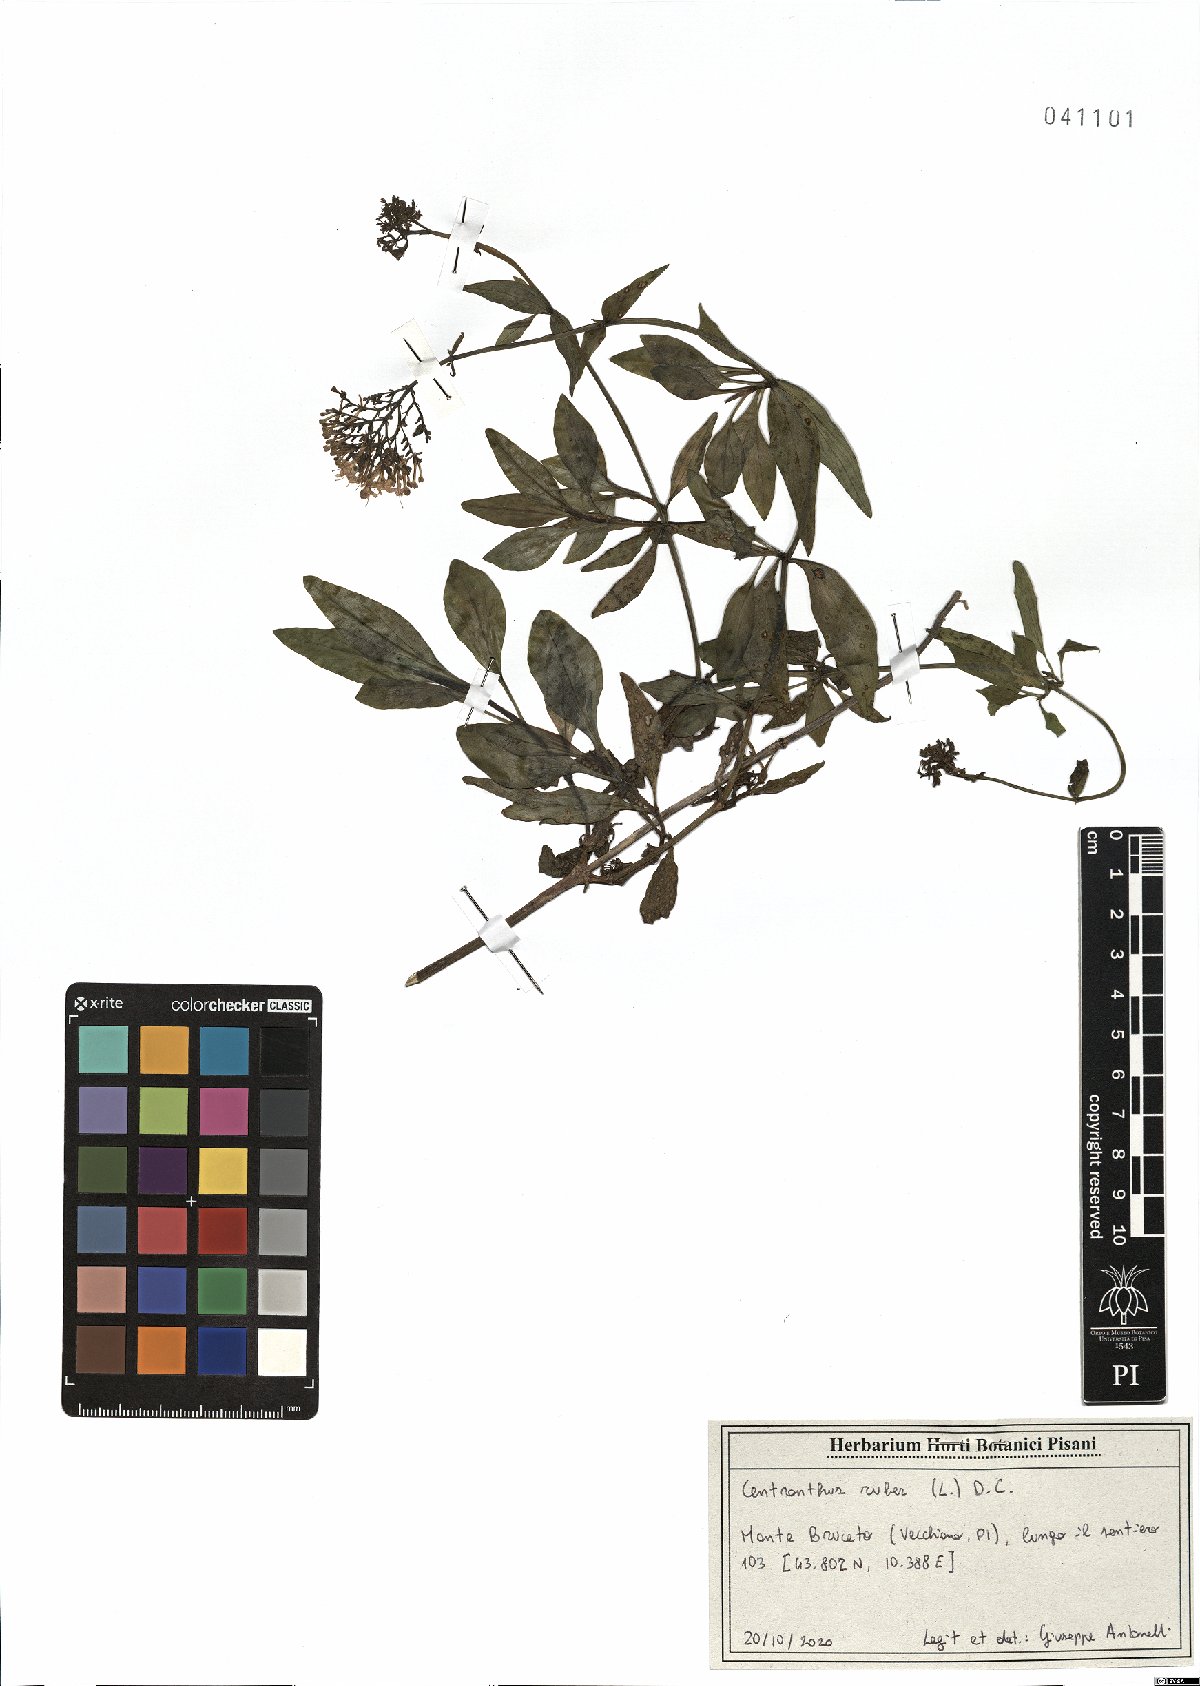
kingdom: Plantae
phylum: Tracheophyta
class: Magnoliopsida
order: Dipsacales
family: Caprifoliaceae
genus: Centranthus
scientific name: Centranthus ruber
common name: Red valerian
